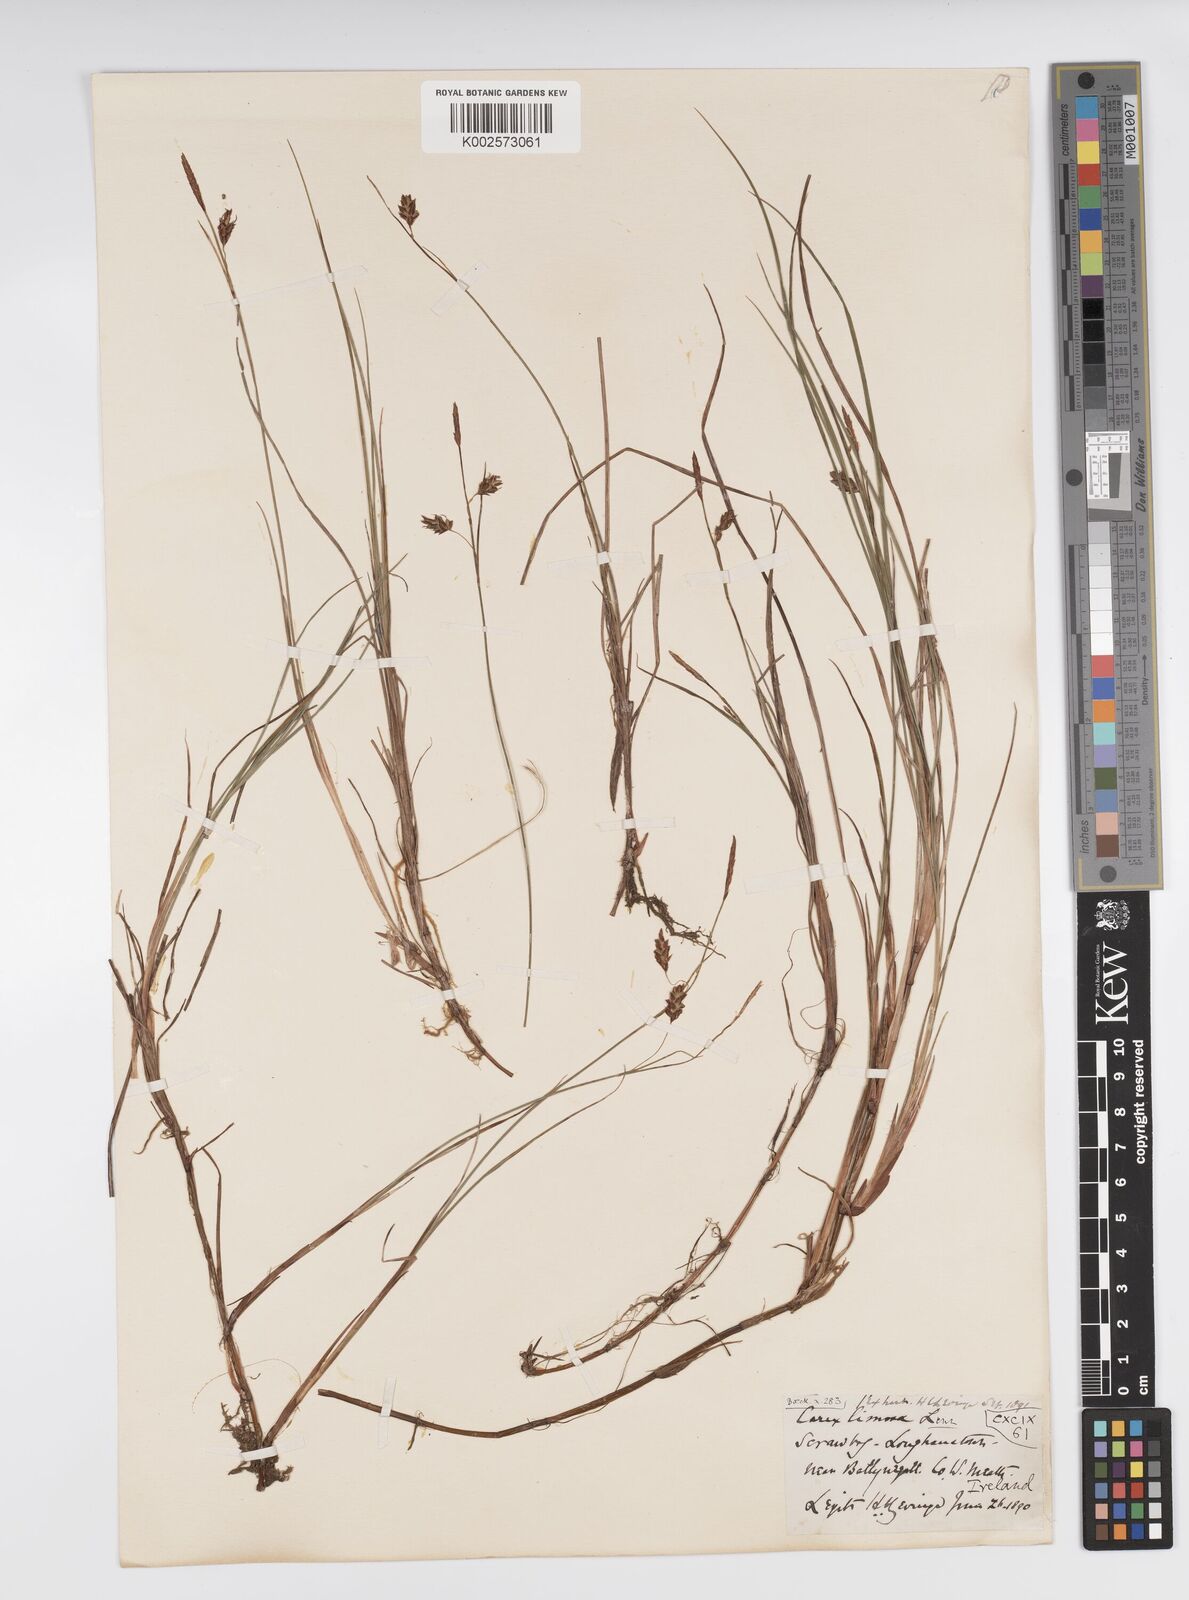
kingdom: Plantae
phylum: Tracheophyta
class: Liliopsida
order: Poales
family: Cyperaceae
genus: Carex
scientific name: Carex limosa
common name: Bog sedge
